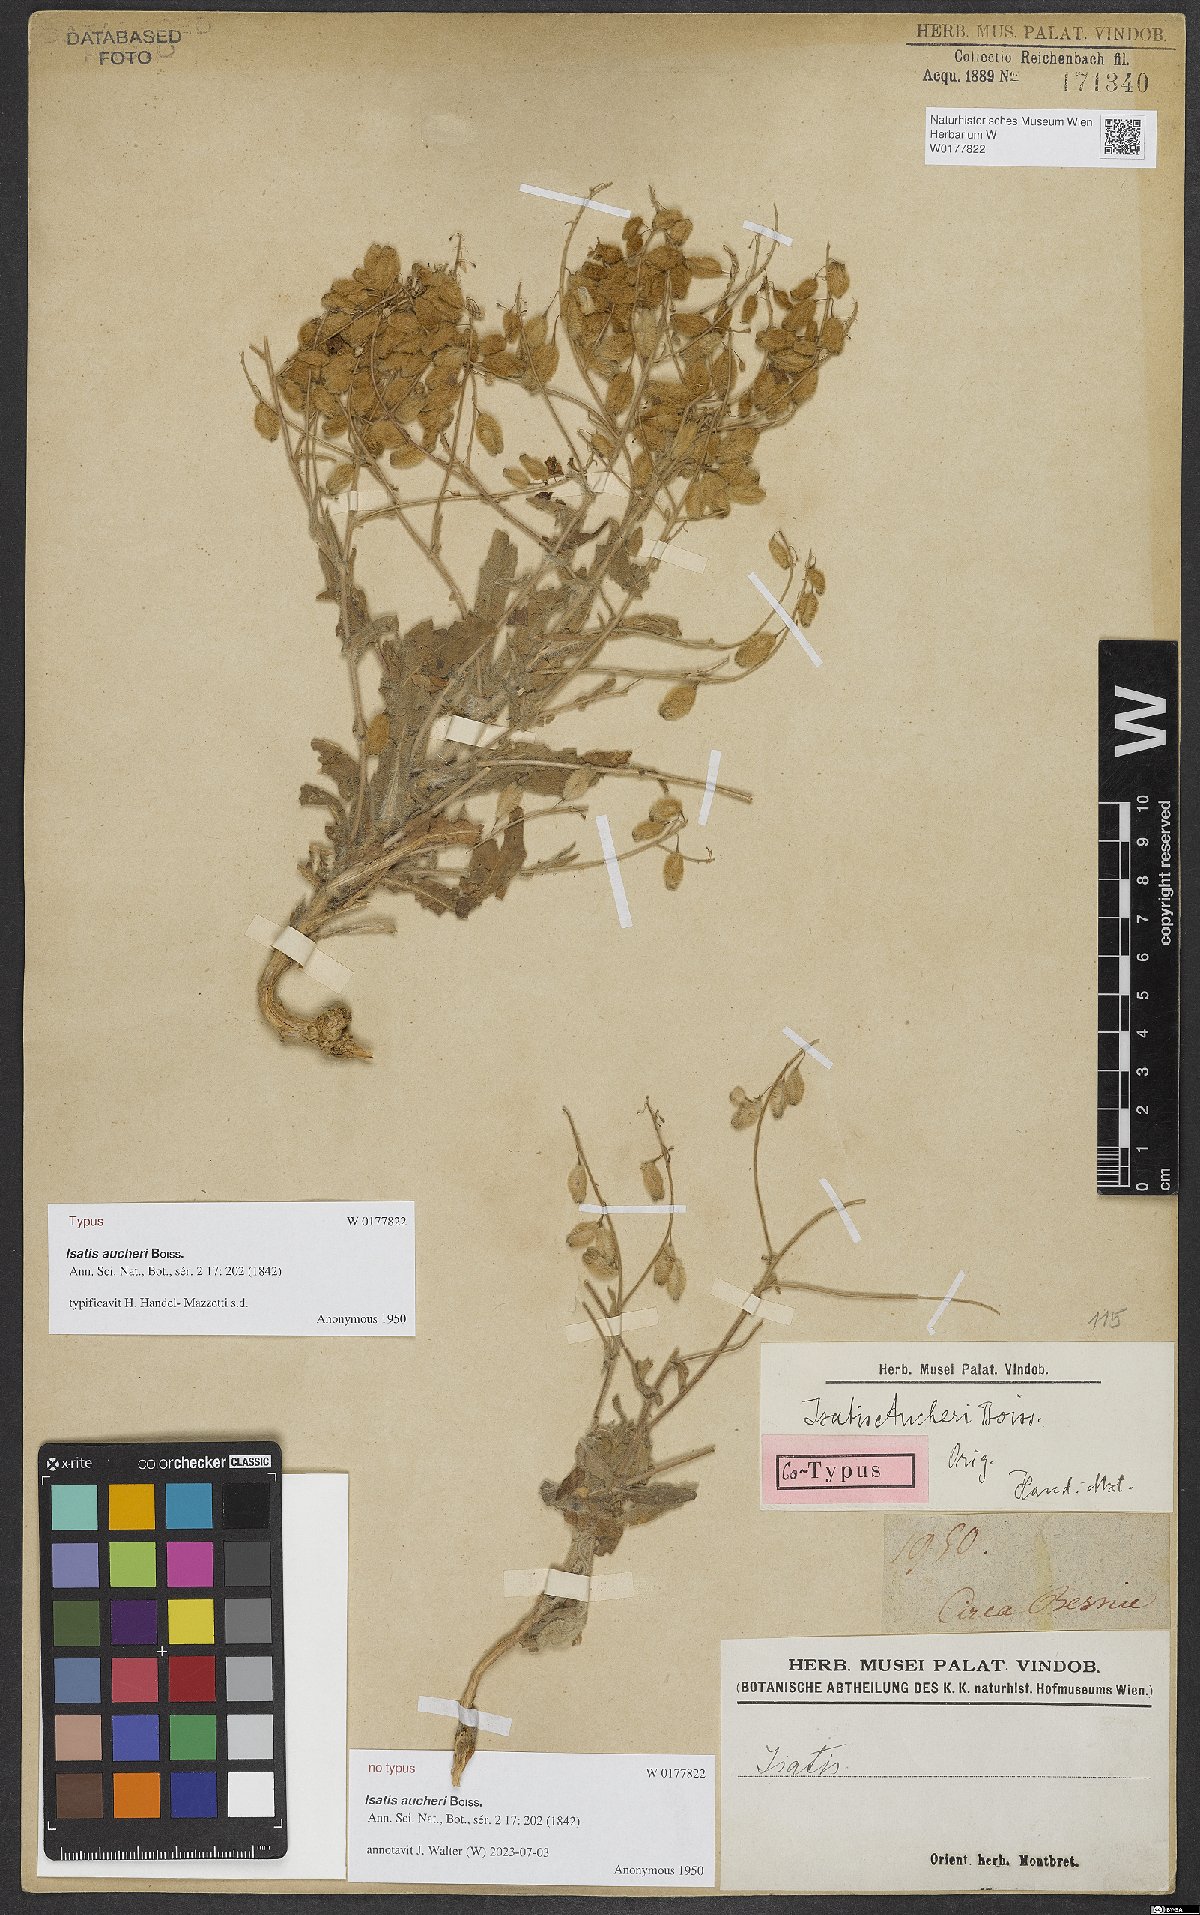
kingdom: Plantae
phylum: Tracheophyta
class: Magnoliopsida
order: Brassicales
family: Brassicaceae
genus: Isatis
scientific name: Isatis aucheri
